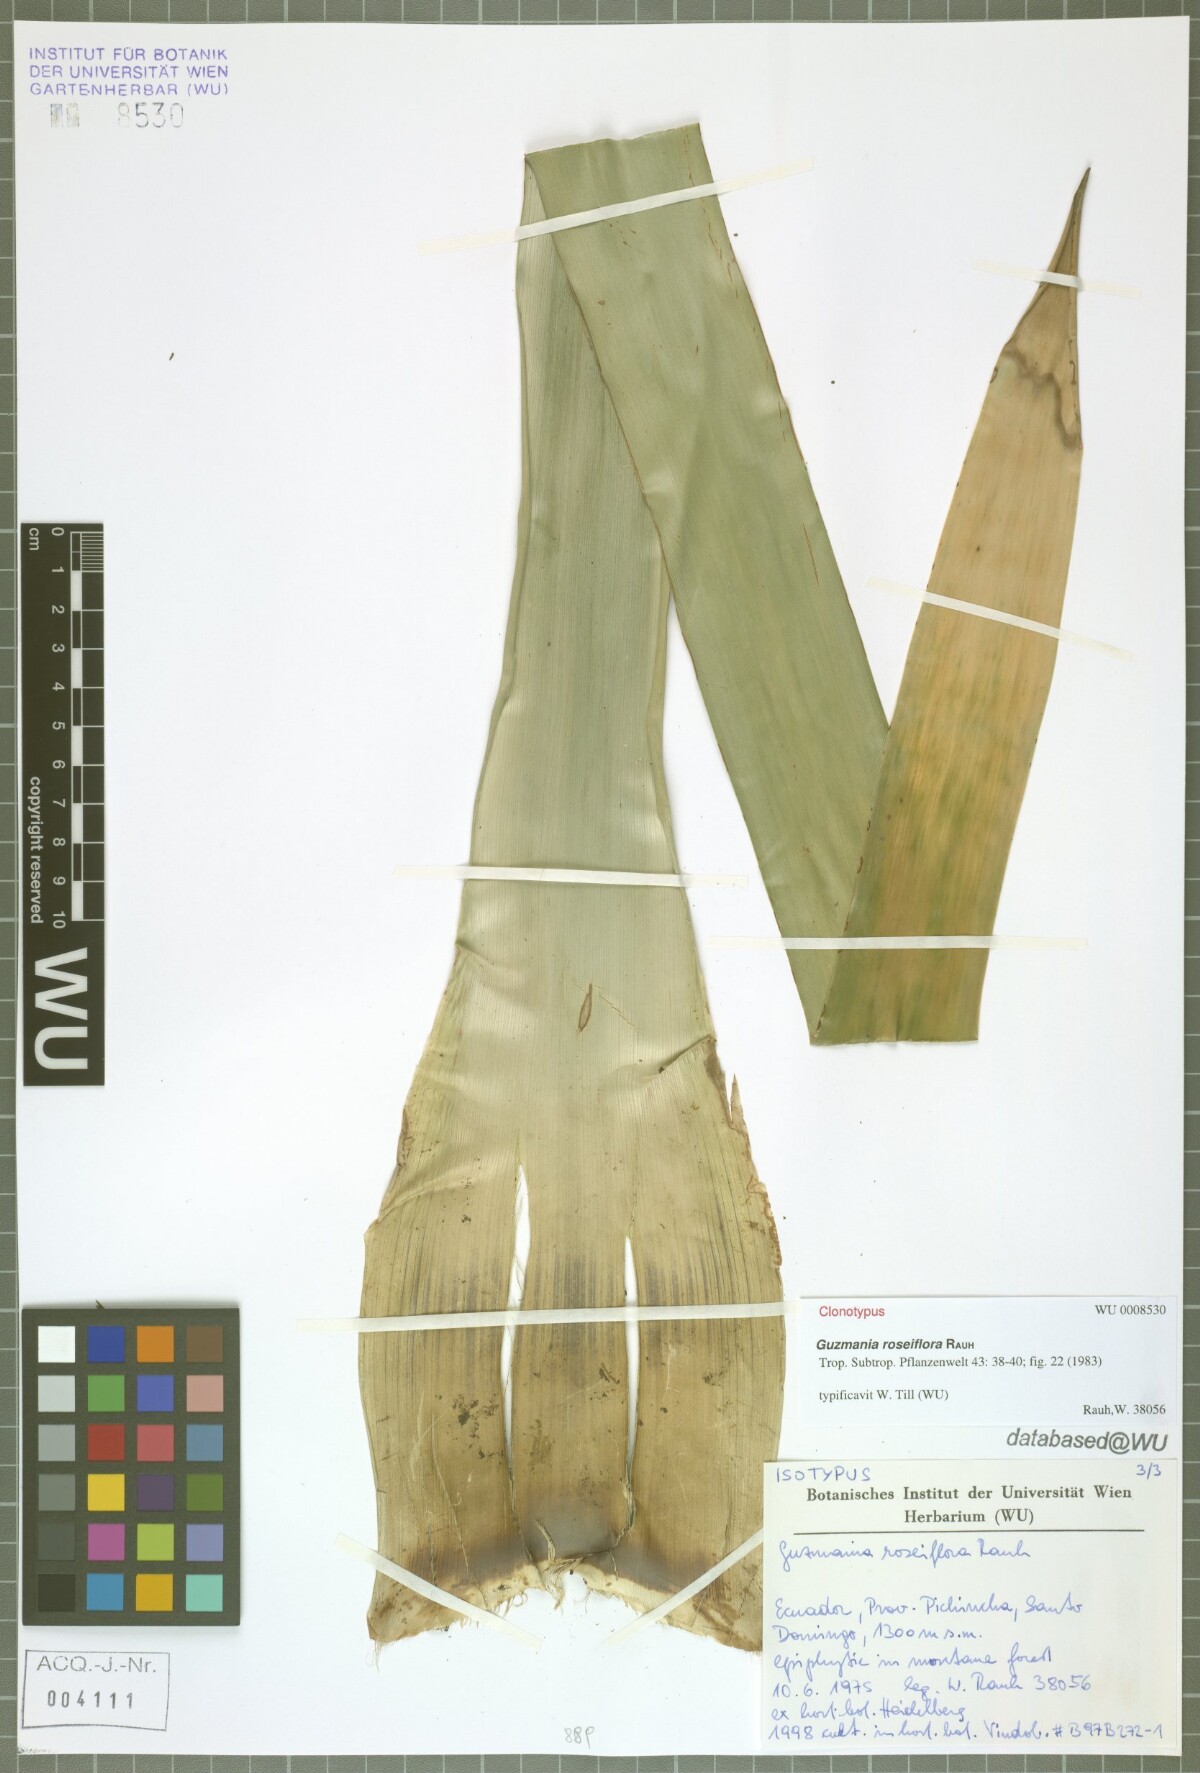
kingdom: Plantae
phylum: Tracheophyta
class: Liliopsida
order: Poales
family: Bromeliaceae
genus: Guzmania
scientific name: Guzmania roseiflora
